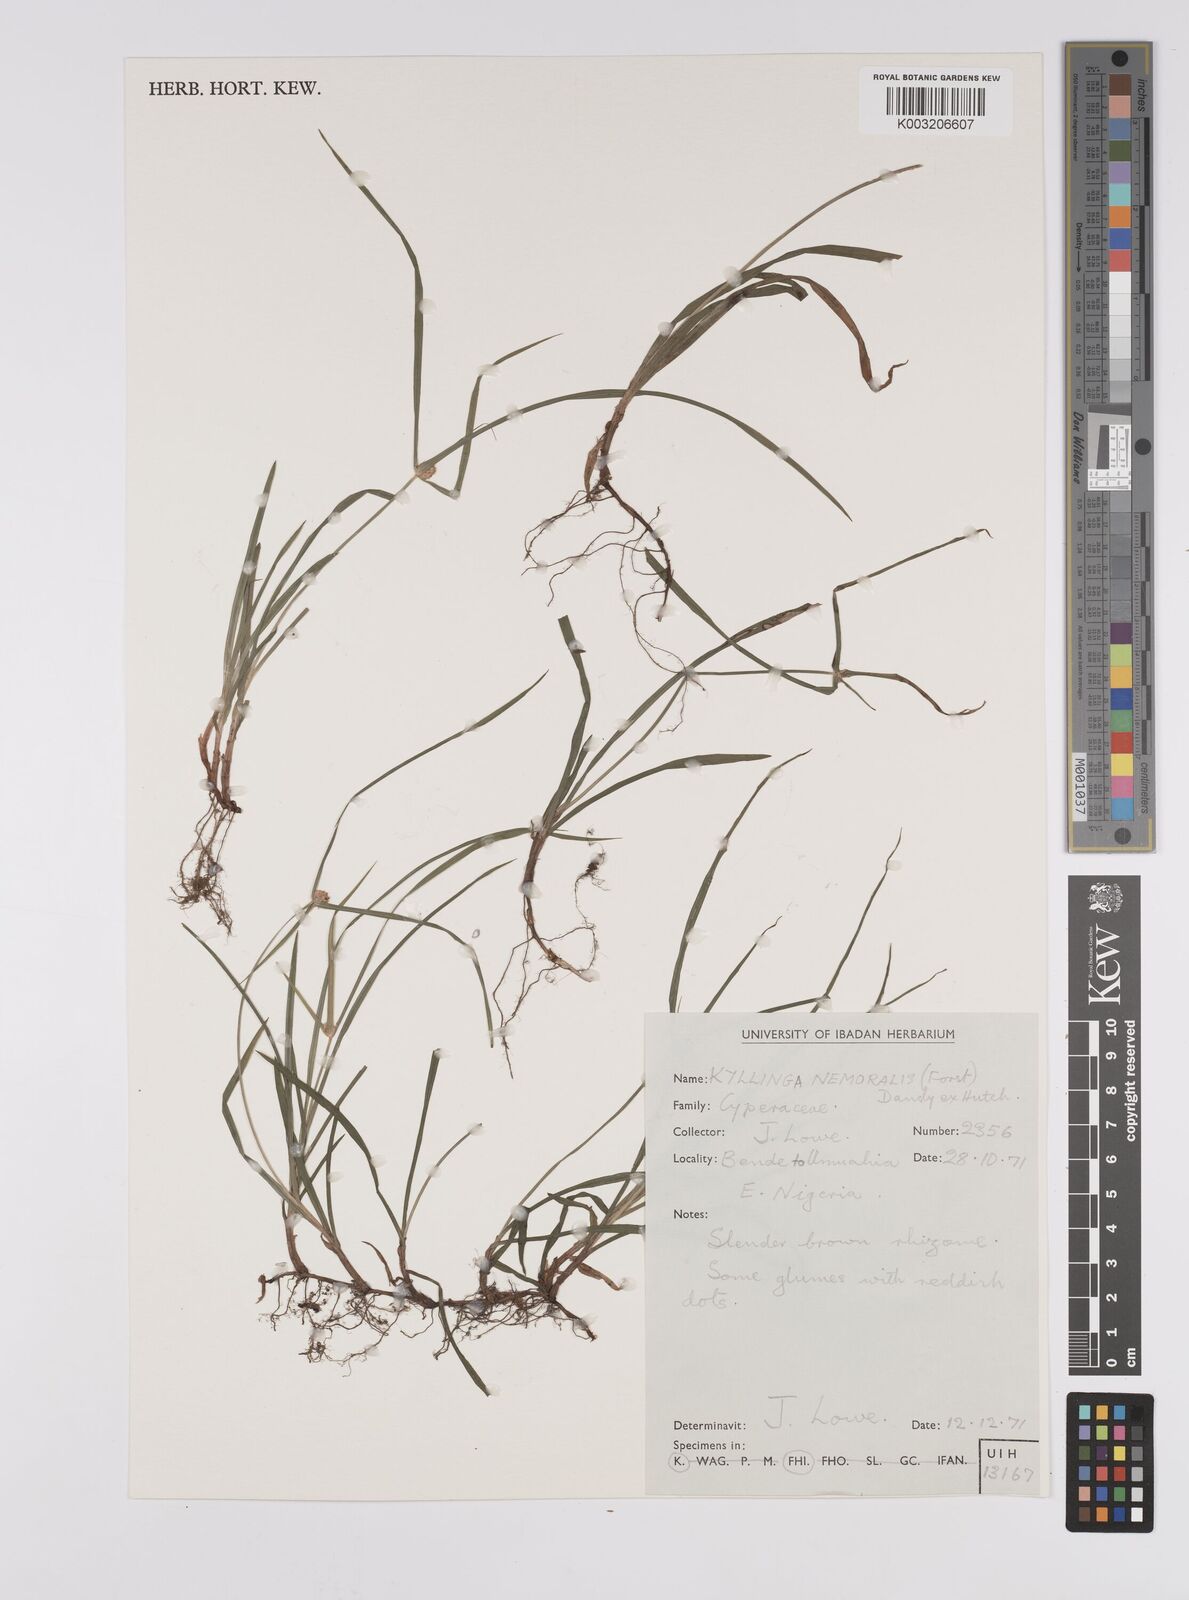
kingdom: Plantae
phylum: Tracheophyta
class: Liliopsida
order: Poales
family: Cyperaceae
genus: Cyperus
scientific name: Cyperus nemoralis
